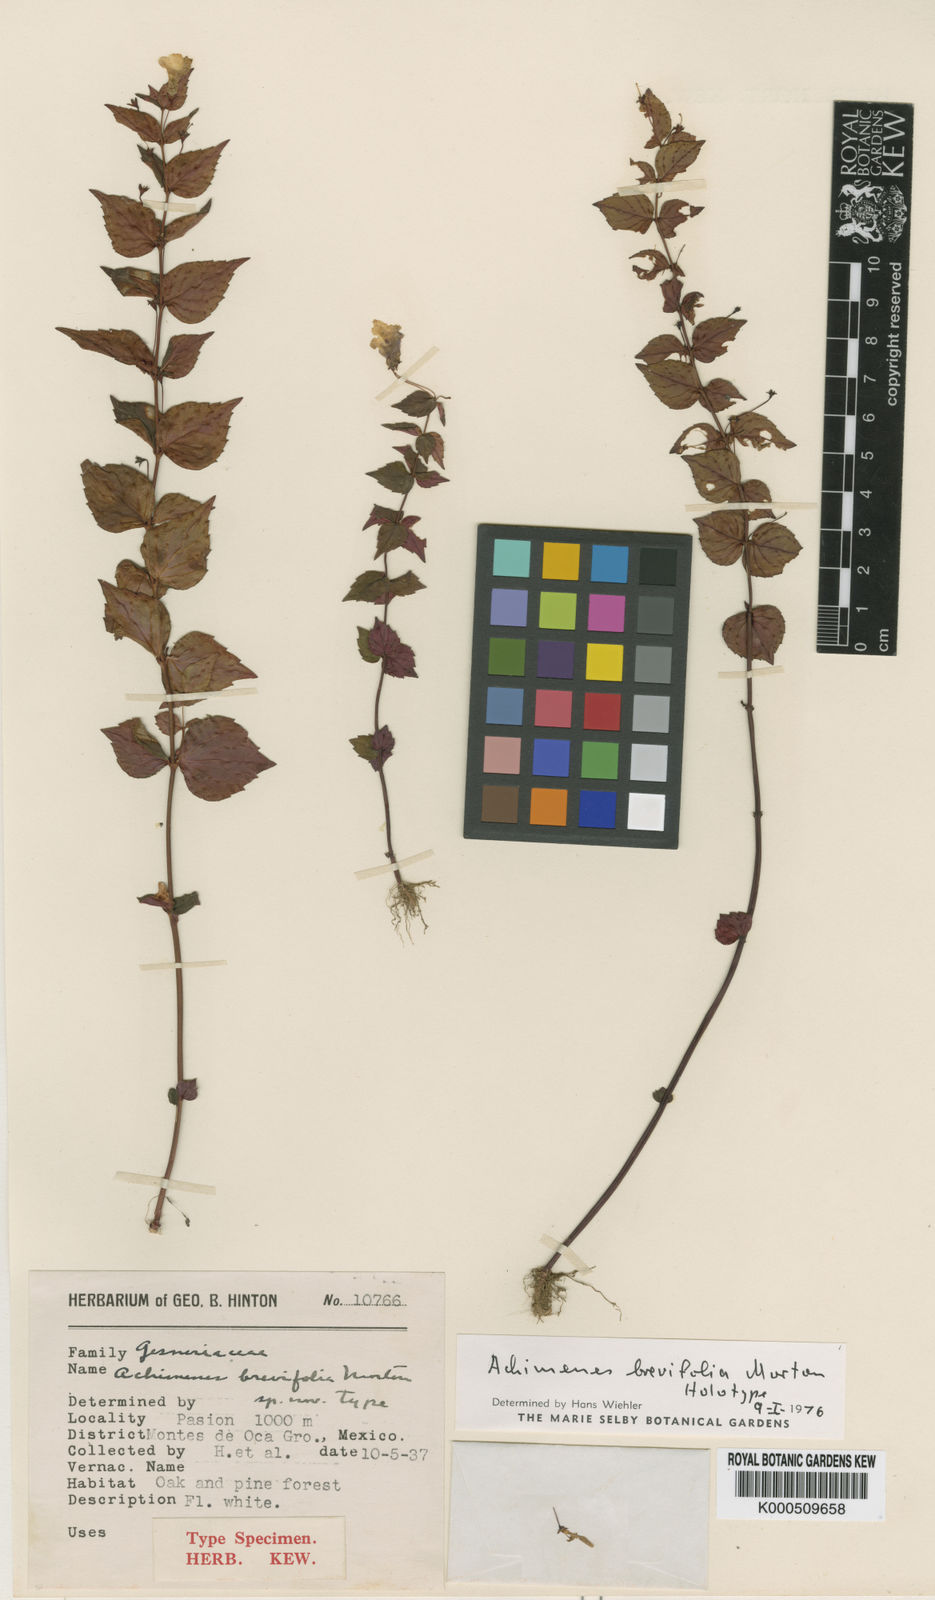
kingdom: Plantae
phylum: Tracheophyta
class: Magnoliopsida
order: Lamiales
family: Gesneriaceae
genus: Achimenes
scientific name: Achimenes brevifolia
